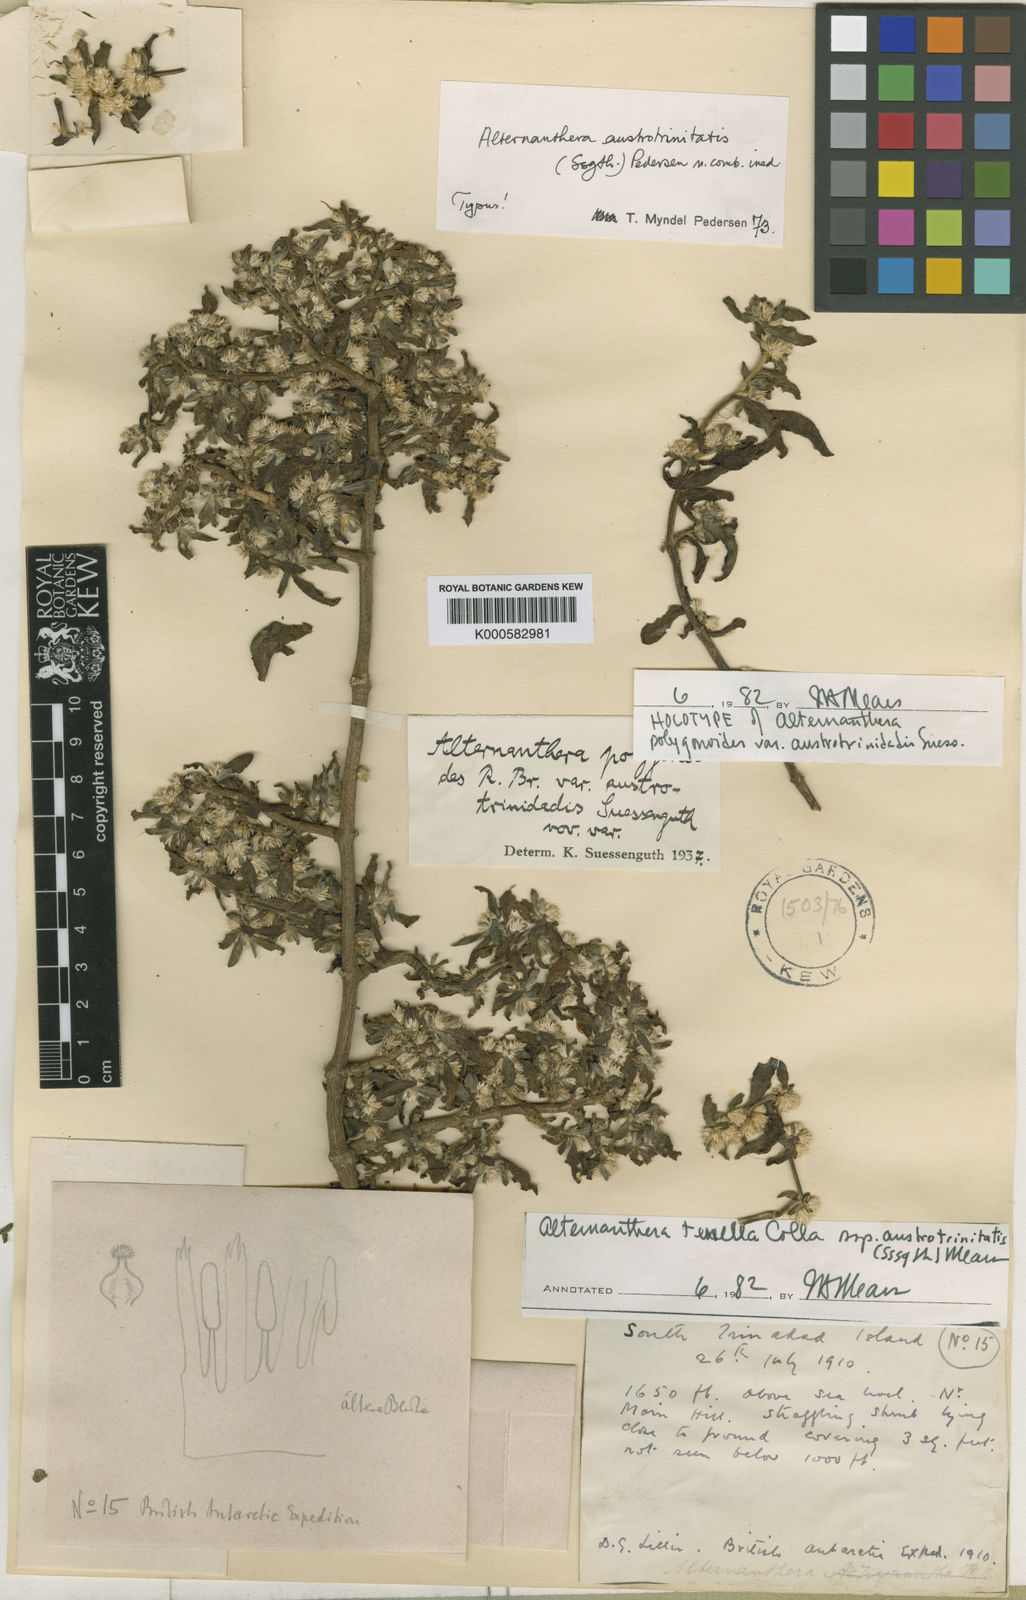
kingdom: Plantae
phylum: Tracheophyta
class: Magnoliopsida
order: Caryophyllales
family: Amaranthaceae
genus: Alternanthera
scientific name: Alternanthera
